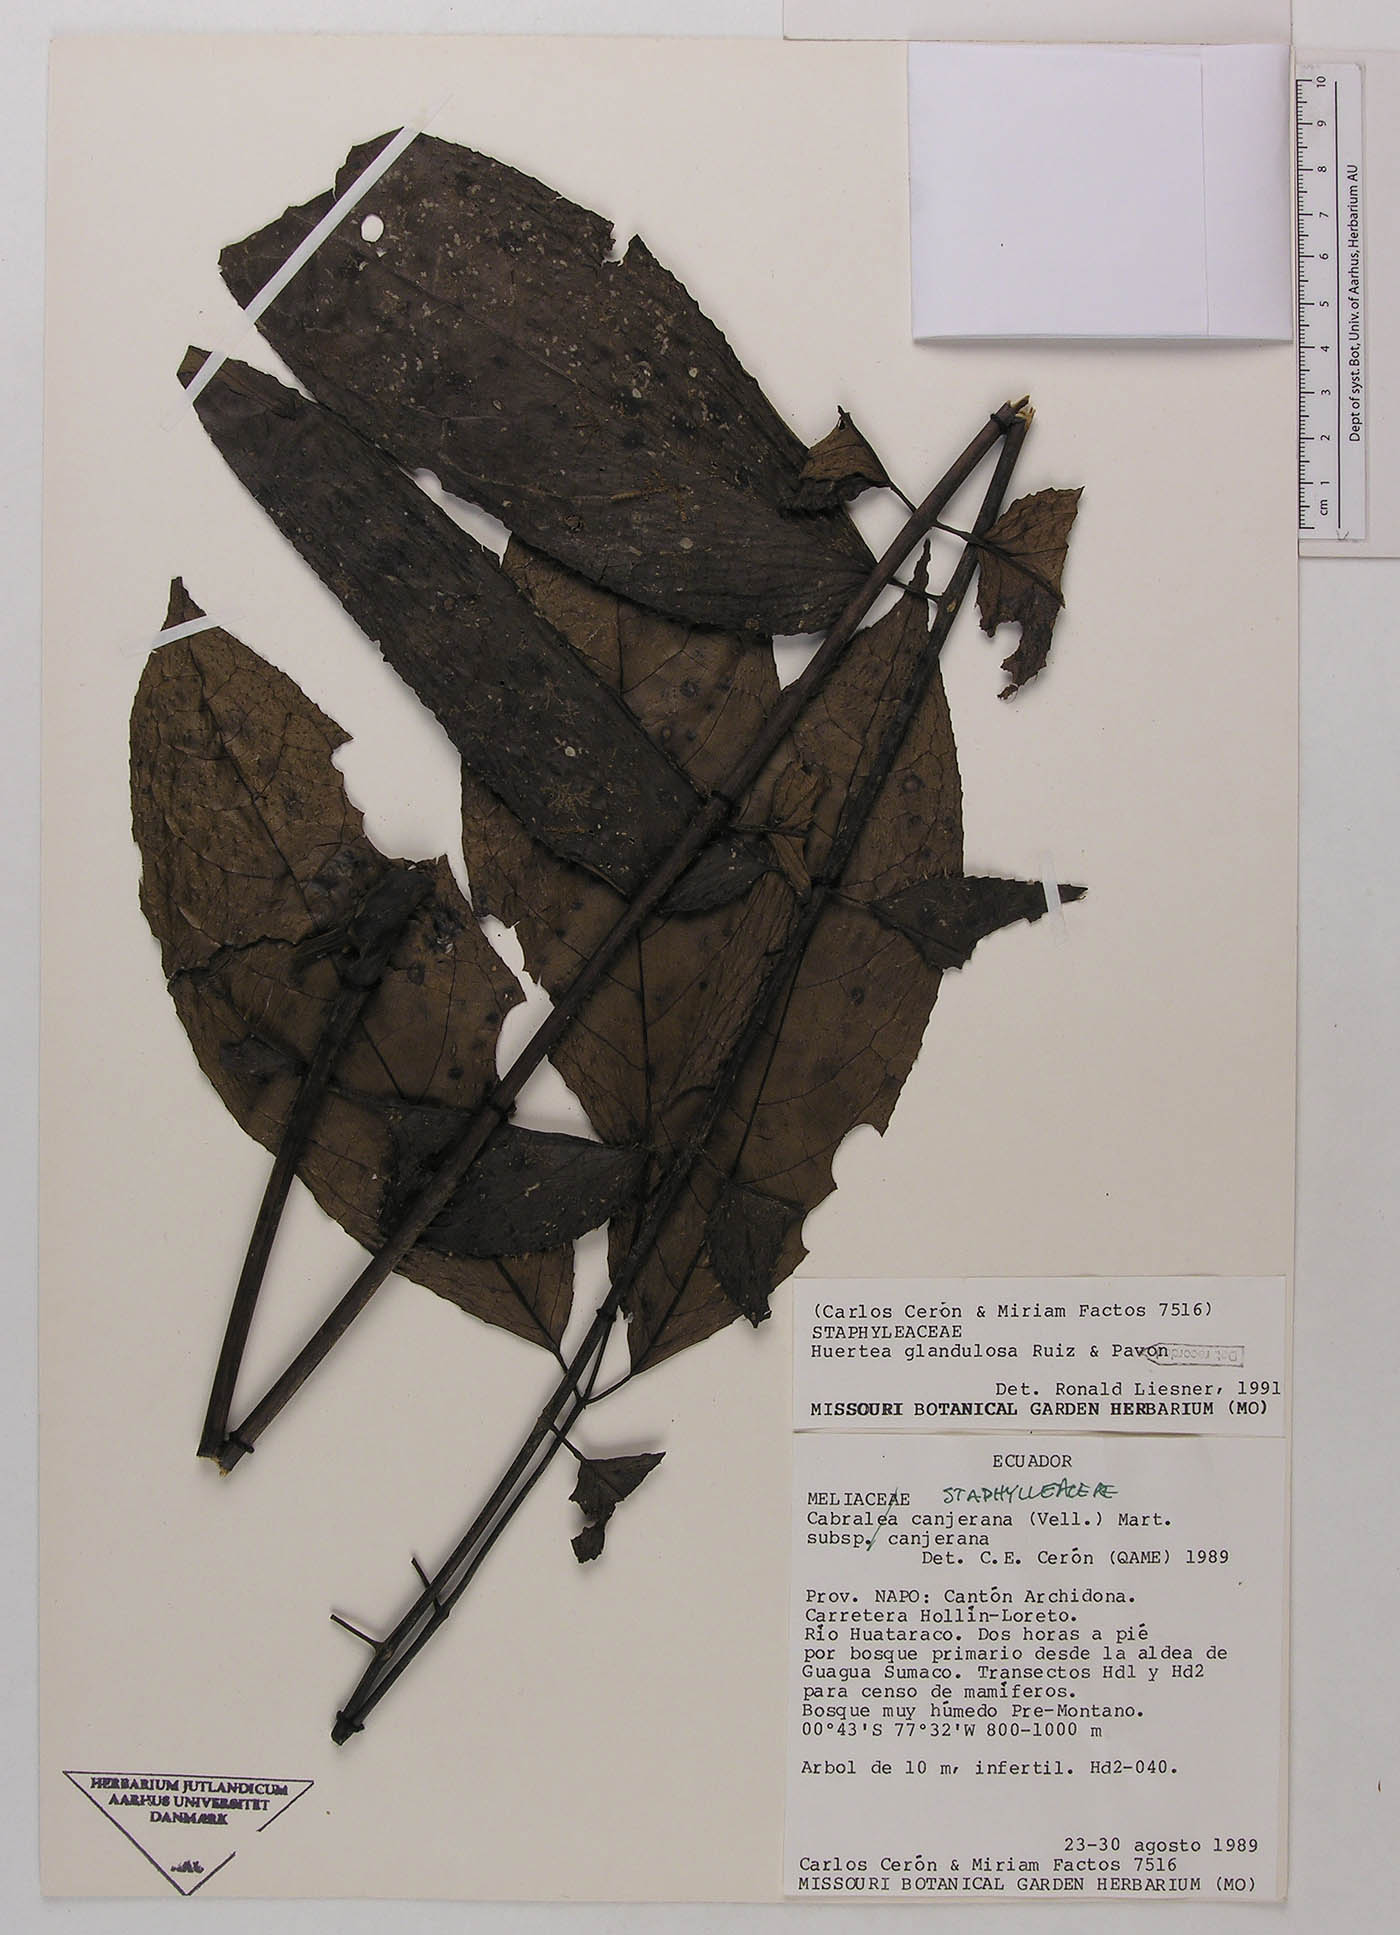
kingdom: Plantae
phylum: Tracheophyta
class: Magnoliopsida
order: Huerteales
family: Tapisciaceae
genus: Huertea
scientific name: Huertea glandulosa
